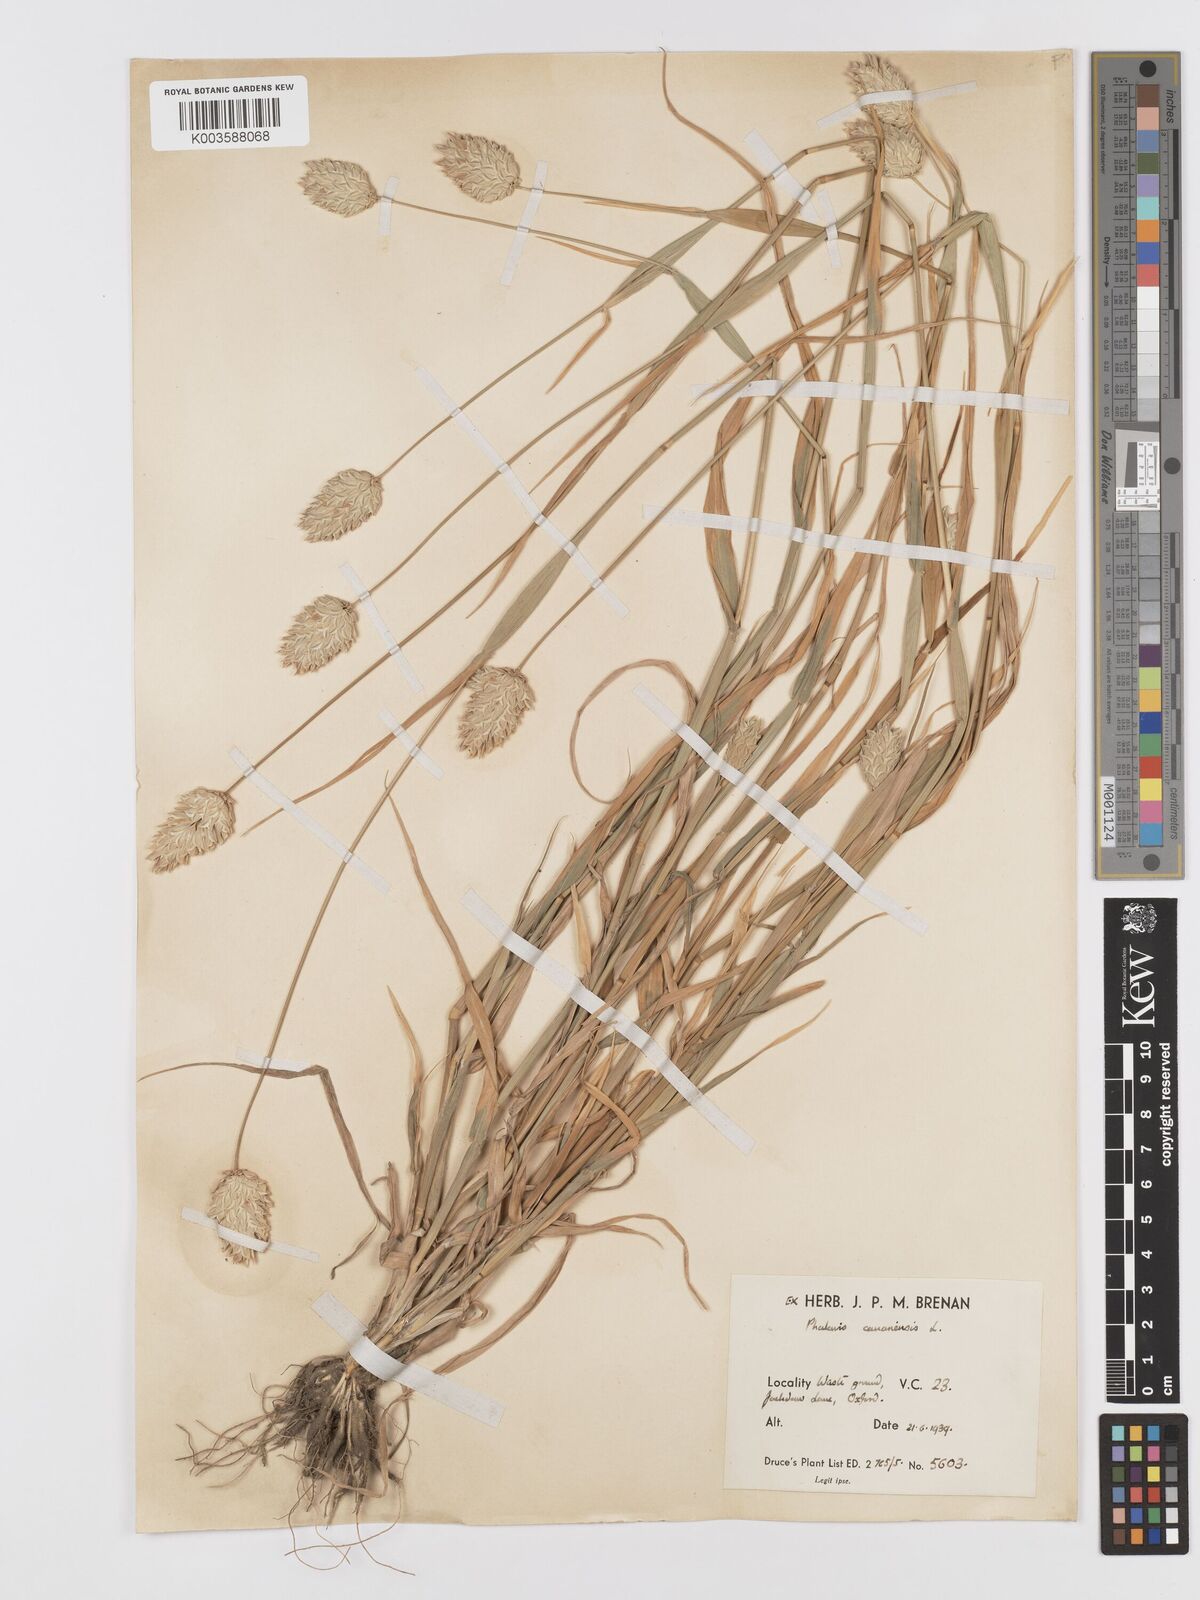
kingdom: Plantae
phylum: Tracheophyta
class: Liliopsida
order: Poales
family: Poaceae
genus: Phalaris
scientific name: Phalaris canariensis
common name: Annual canarygrass
